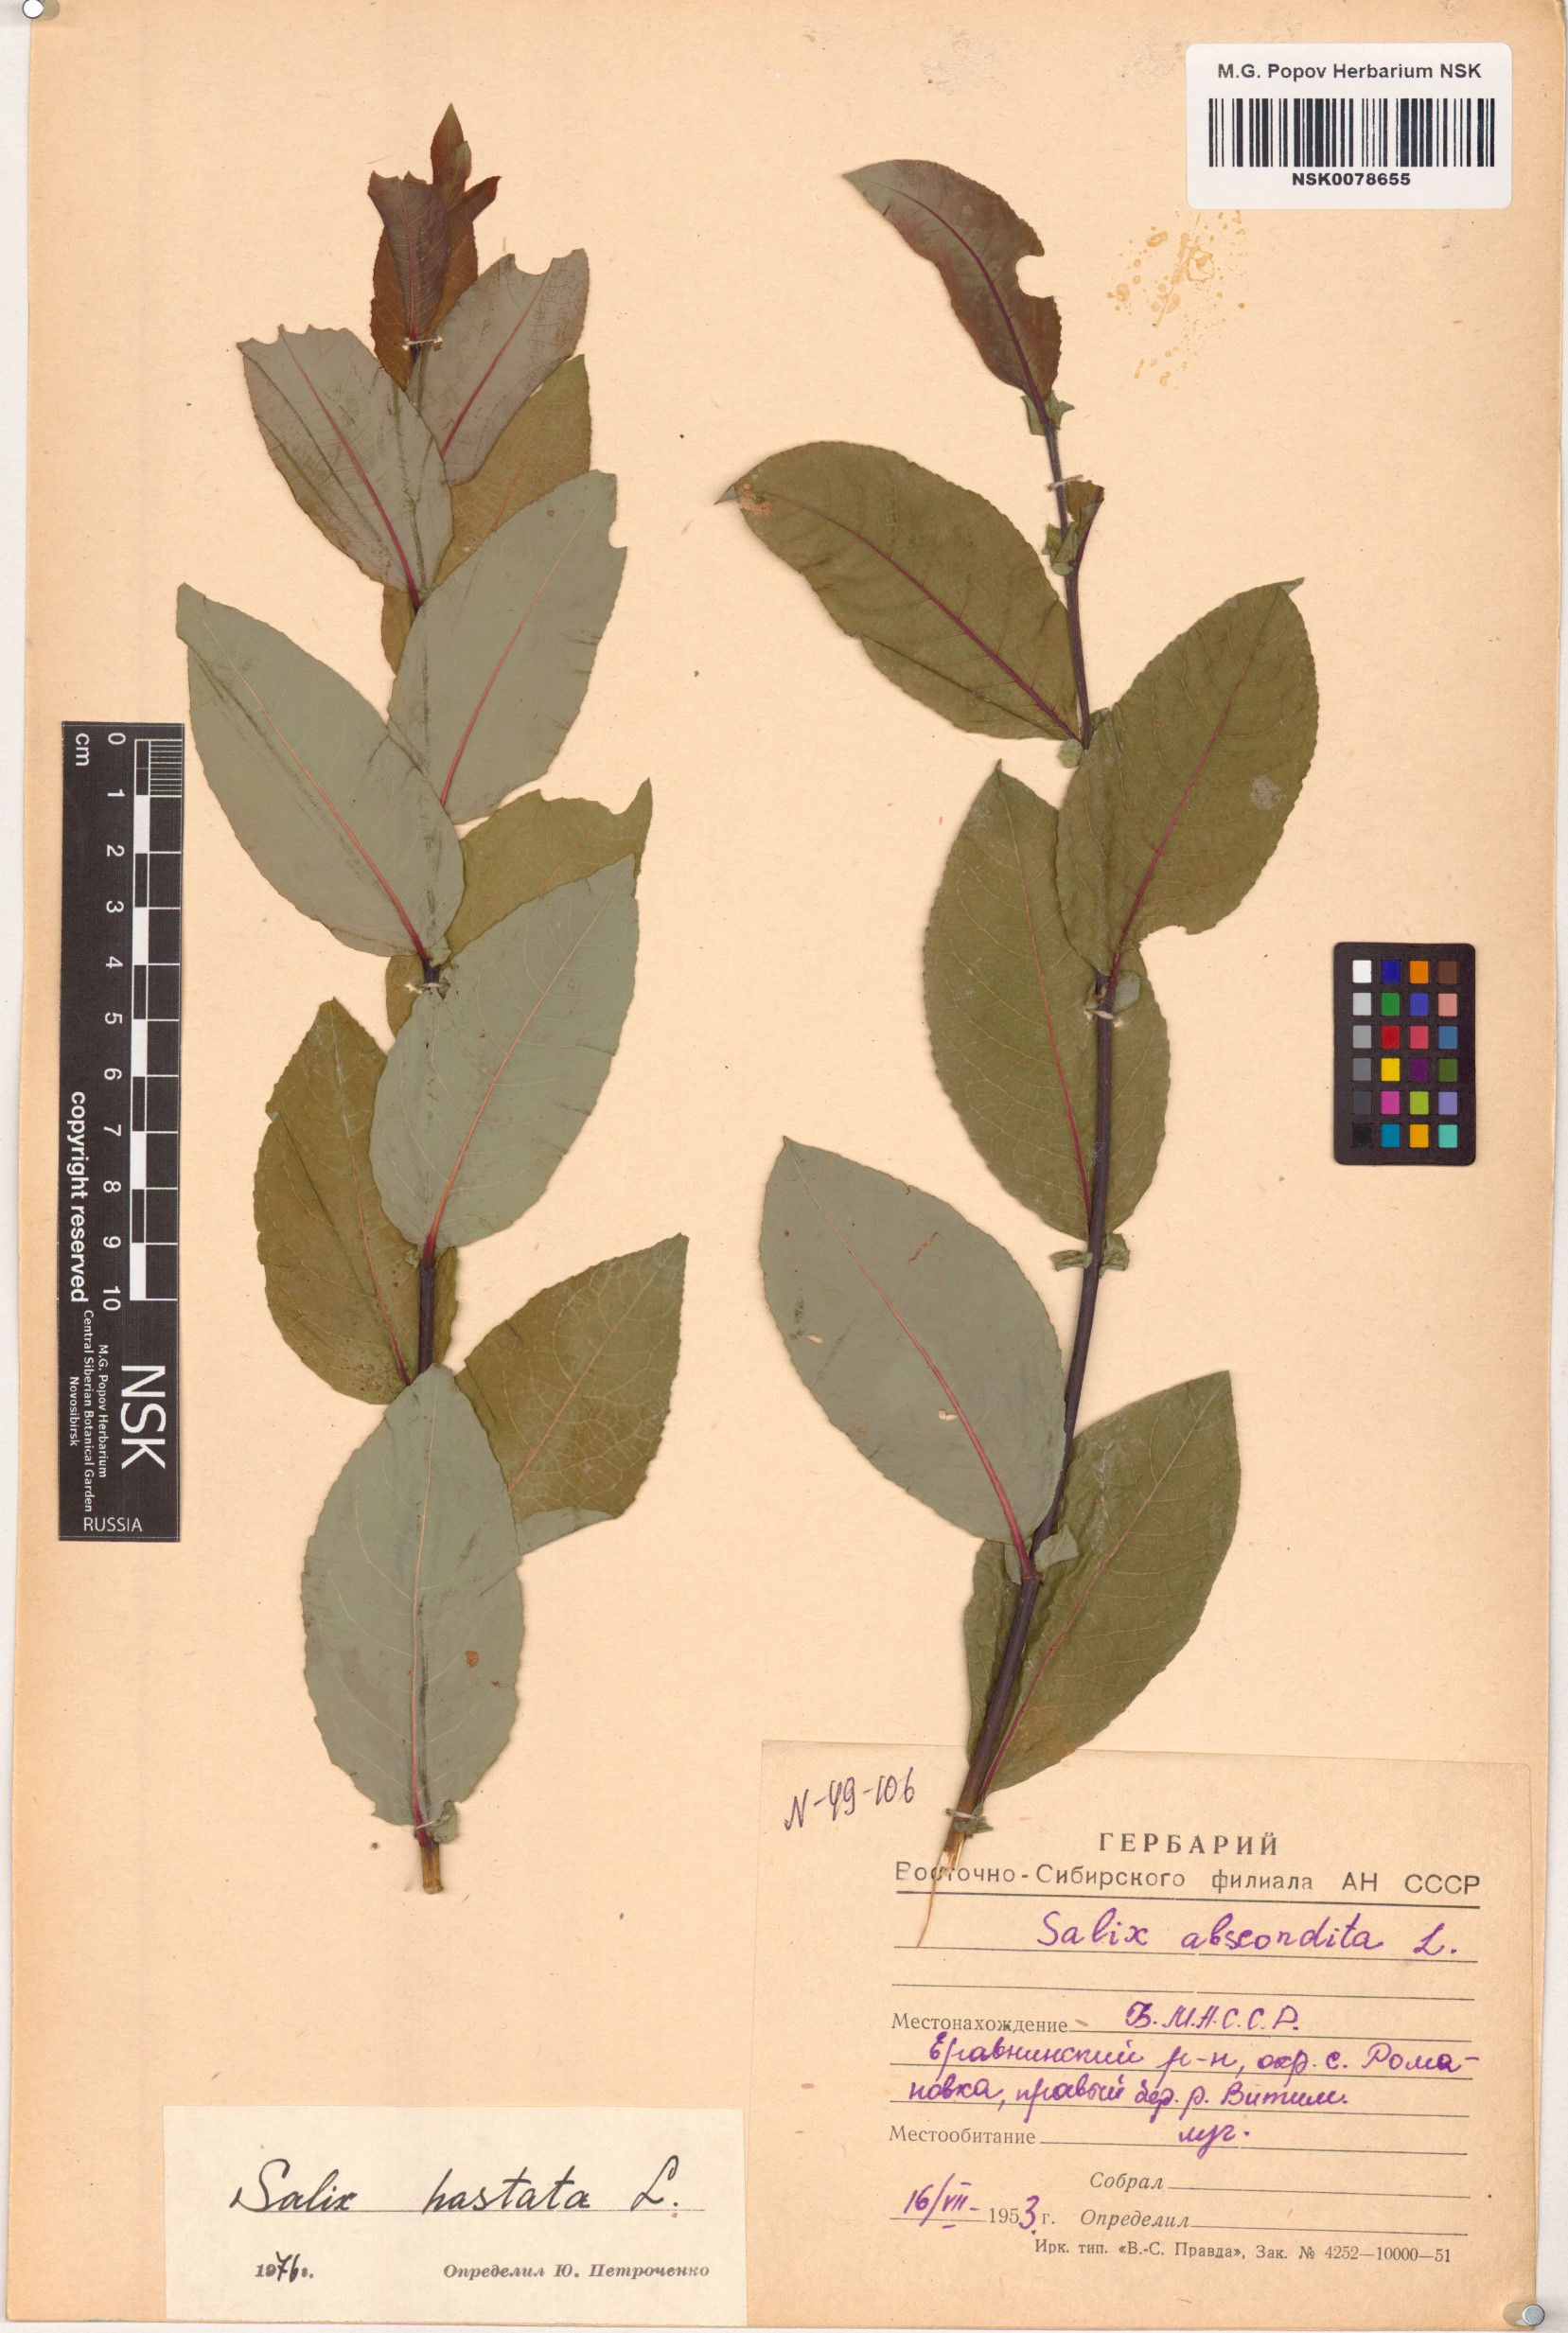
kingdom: Plantae
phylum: Tracheophyta
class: Magnoliopsida
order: Malpighiales
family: Salicaceae
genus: Salix
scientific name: Salix hastata
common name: Halberd willow
